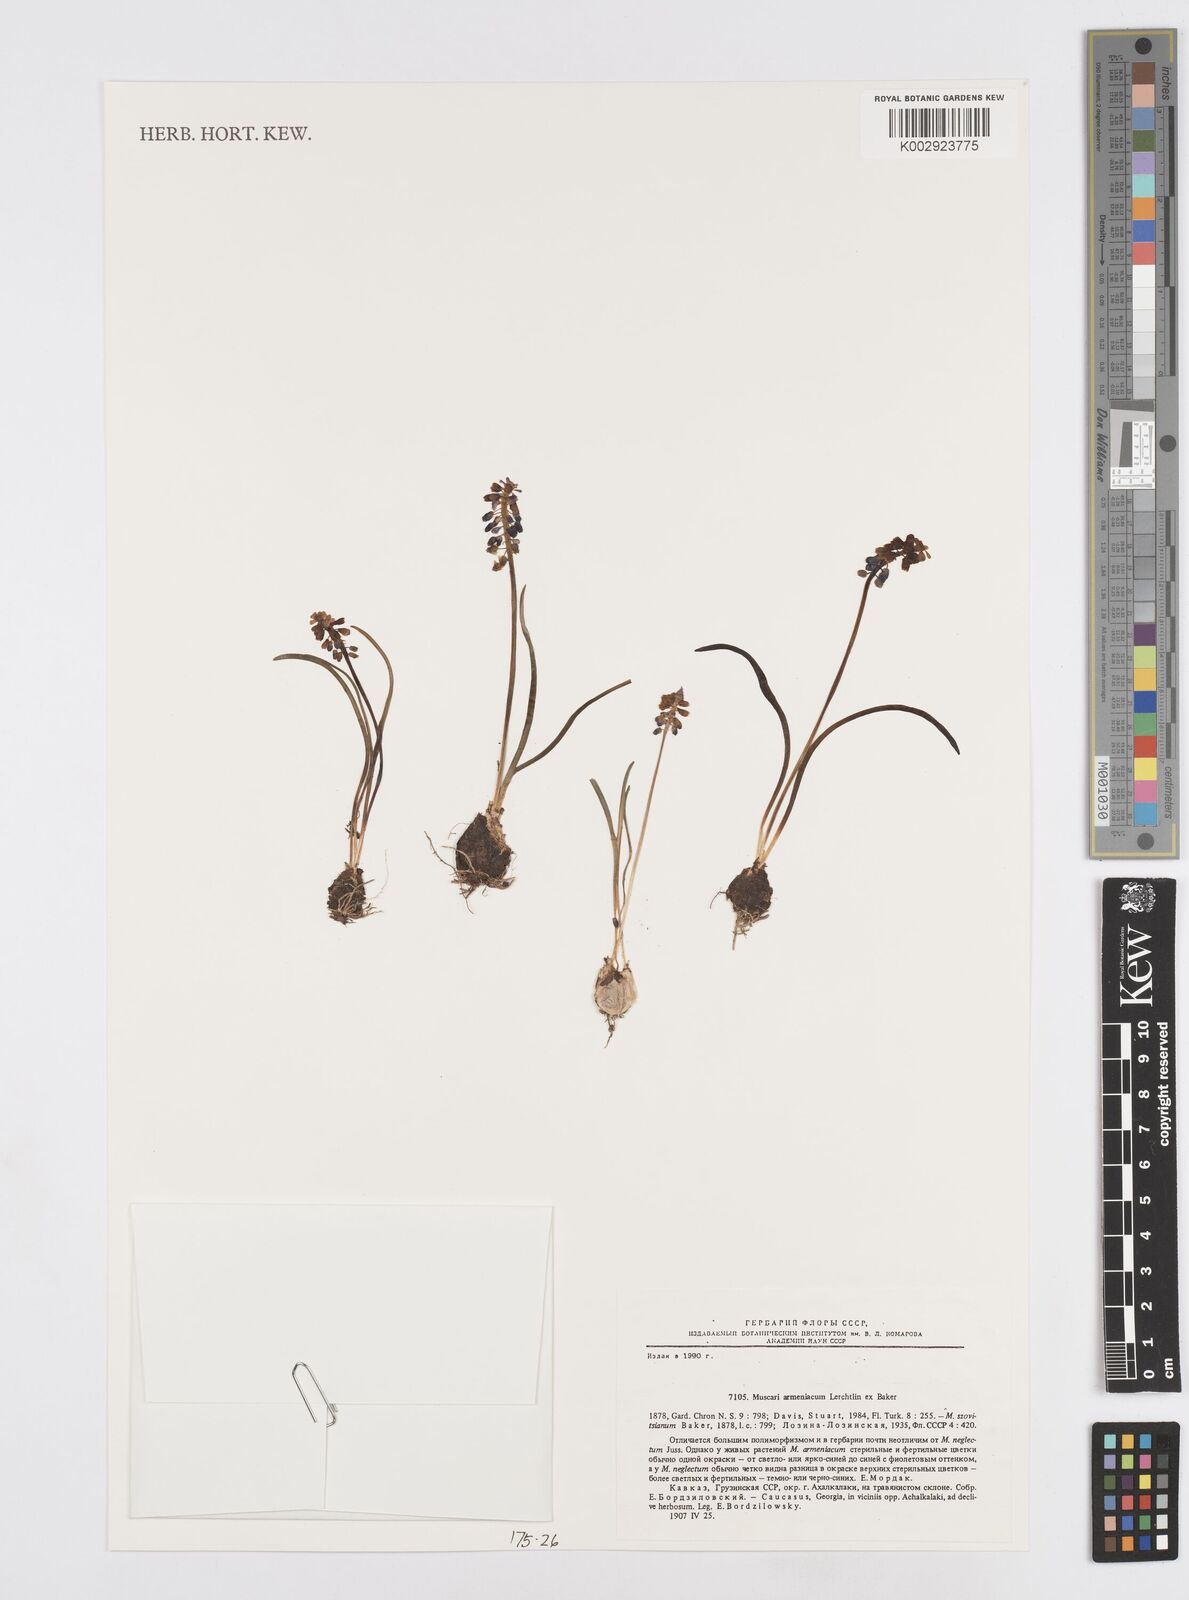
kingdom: Plantae
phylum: Tracheophyta
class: Liliopsida
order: Asparagales
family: Asparagaceae
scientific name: Asparagaceae
